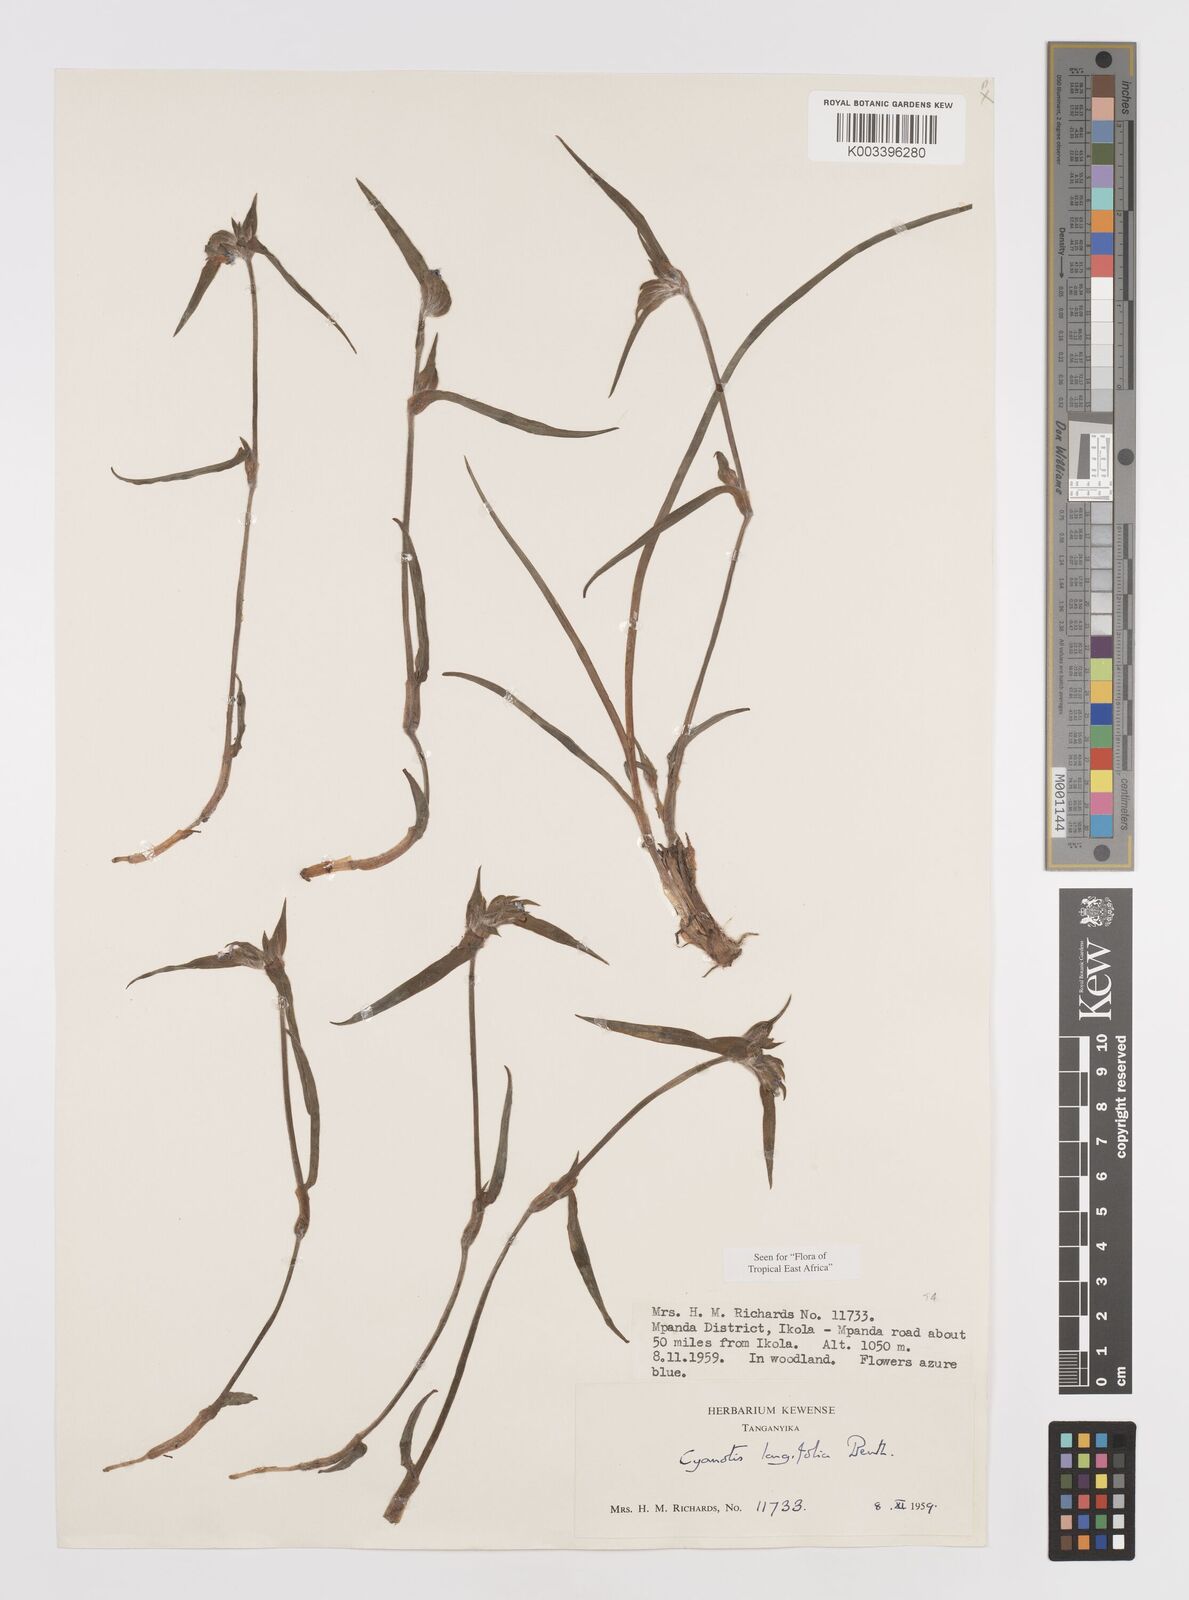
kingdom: Plantae
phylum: Tracheophyta
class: Liliopsida
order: Commelinales
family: Commelinaceae
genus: Cyanotis
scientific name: Cyanotis longifolia
